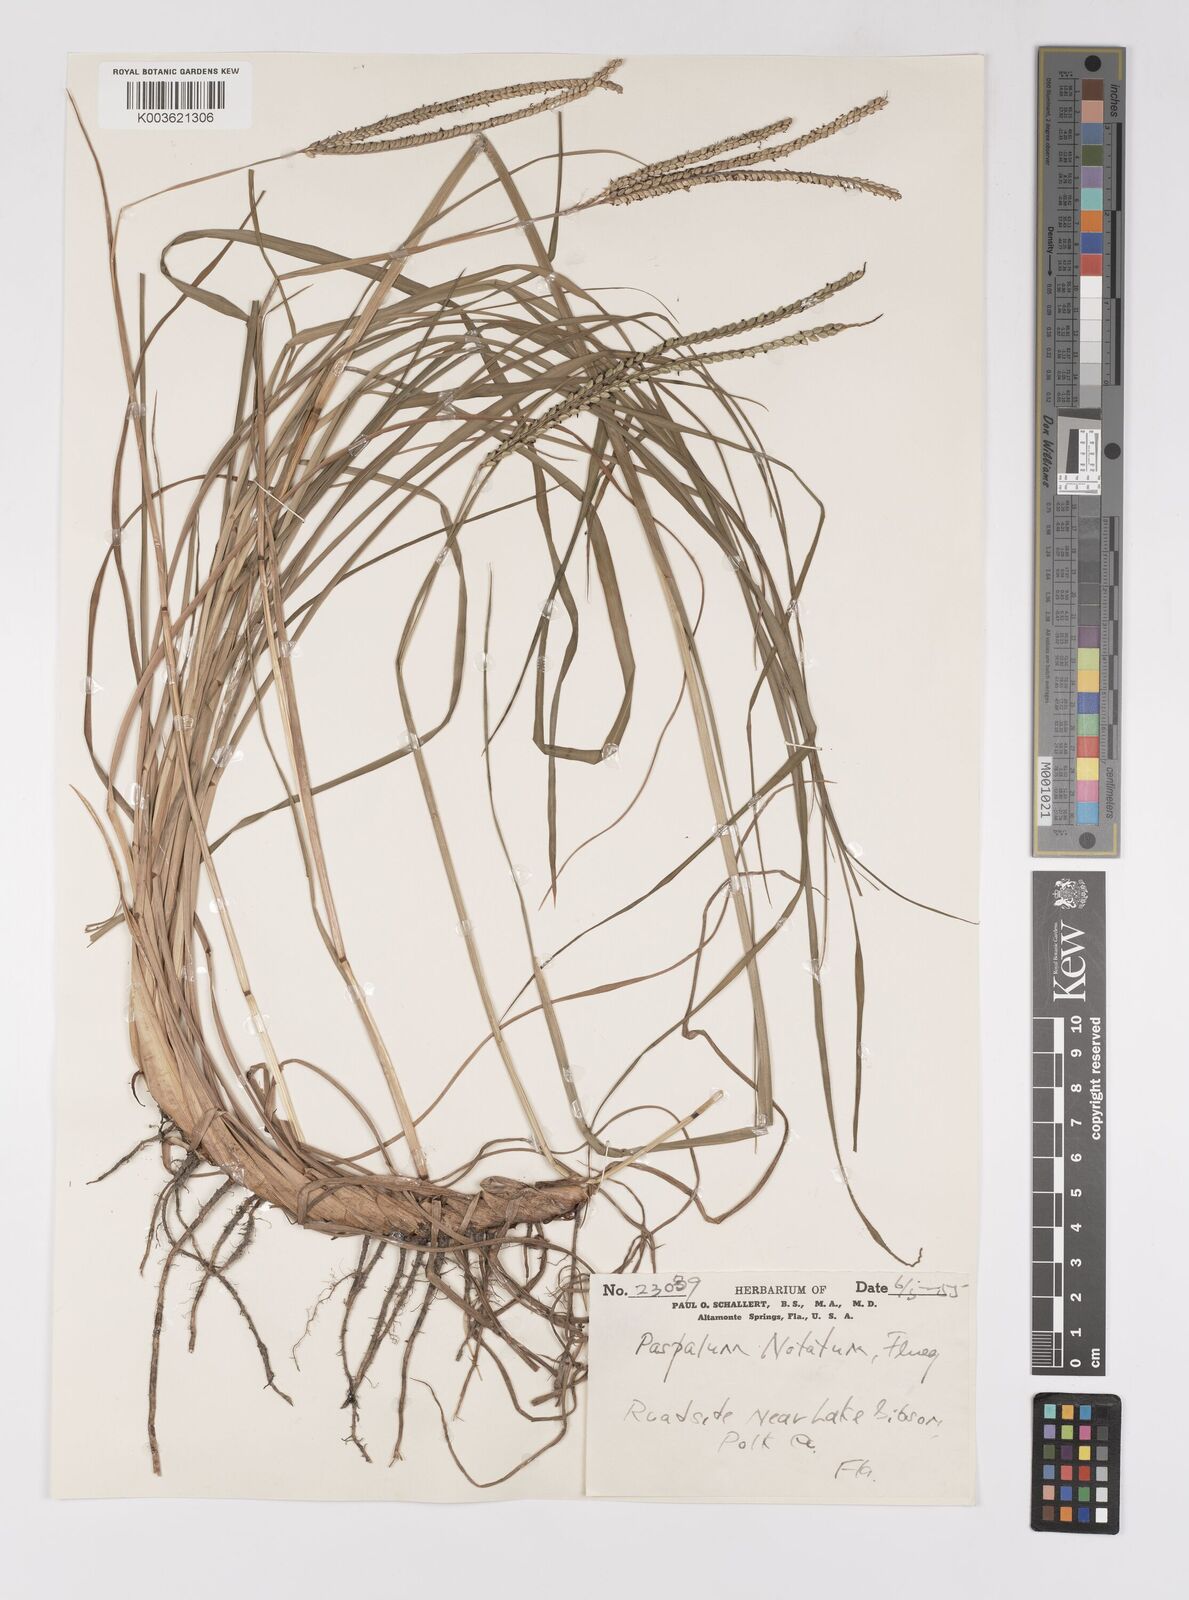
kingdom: Plantae
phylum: Tracheophyta
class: Liliopsida
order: Poales
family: Poaceae
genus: Paspalum
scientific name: Paspalum notatum
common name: Bahiagrass
